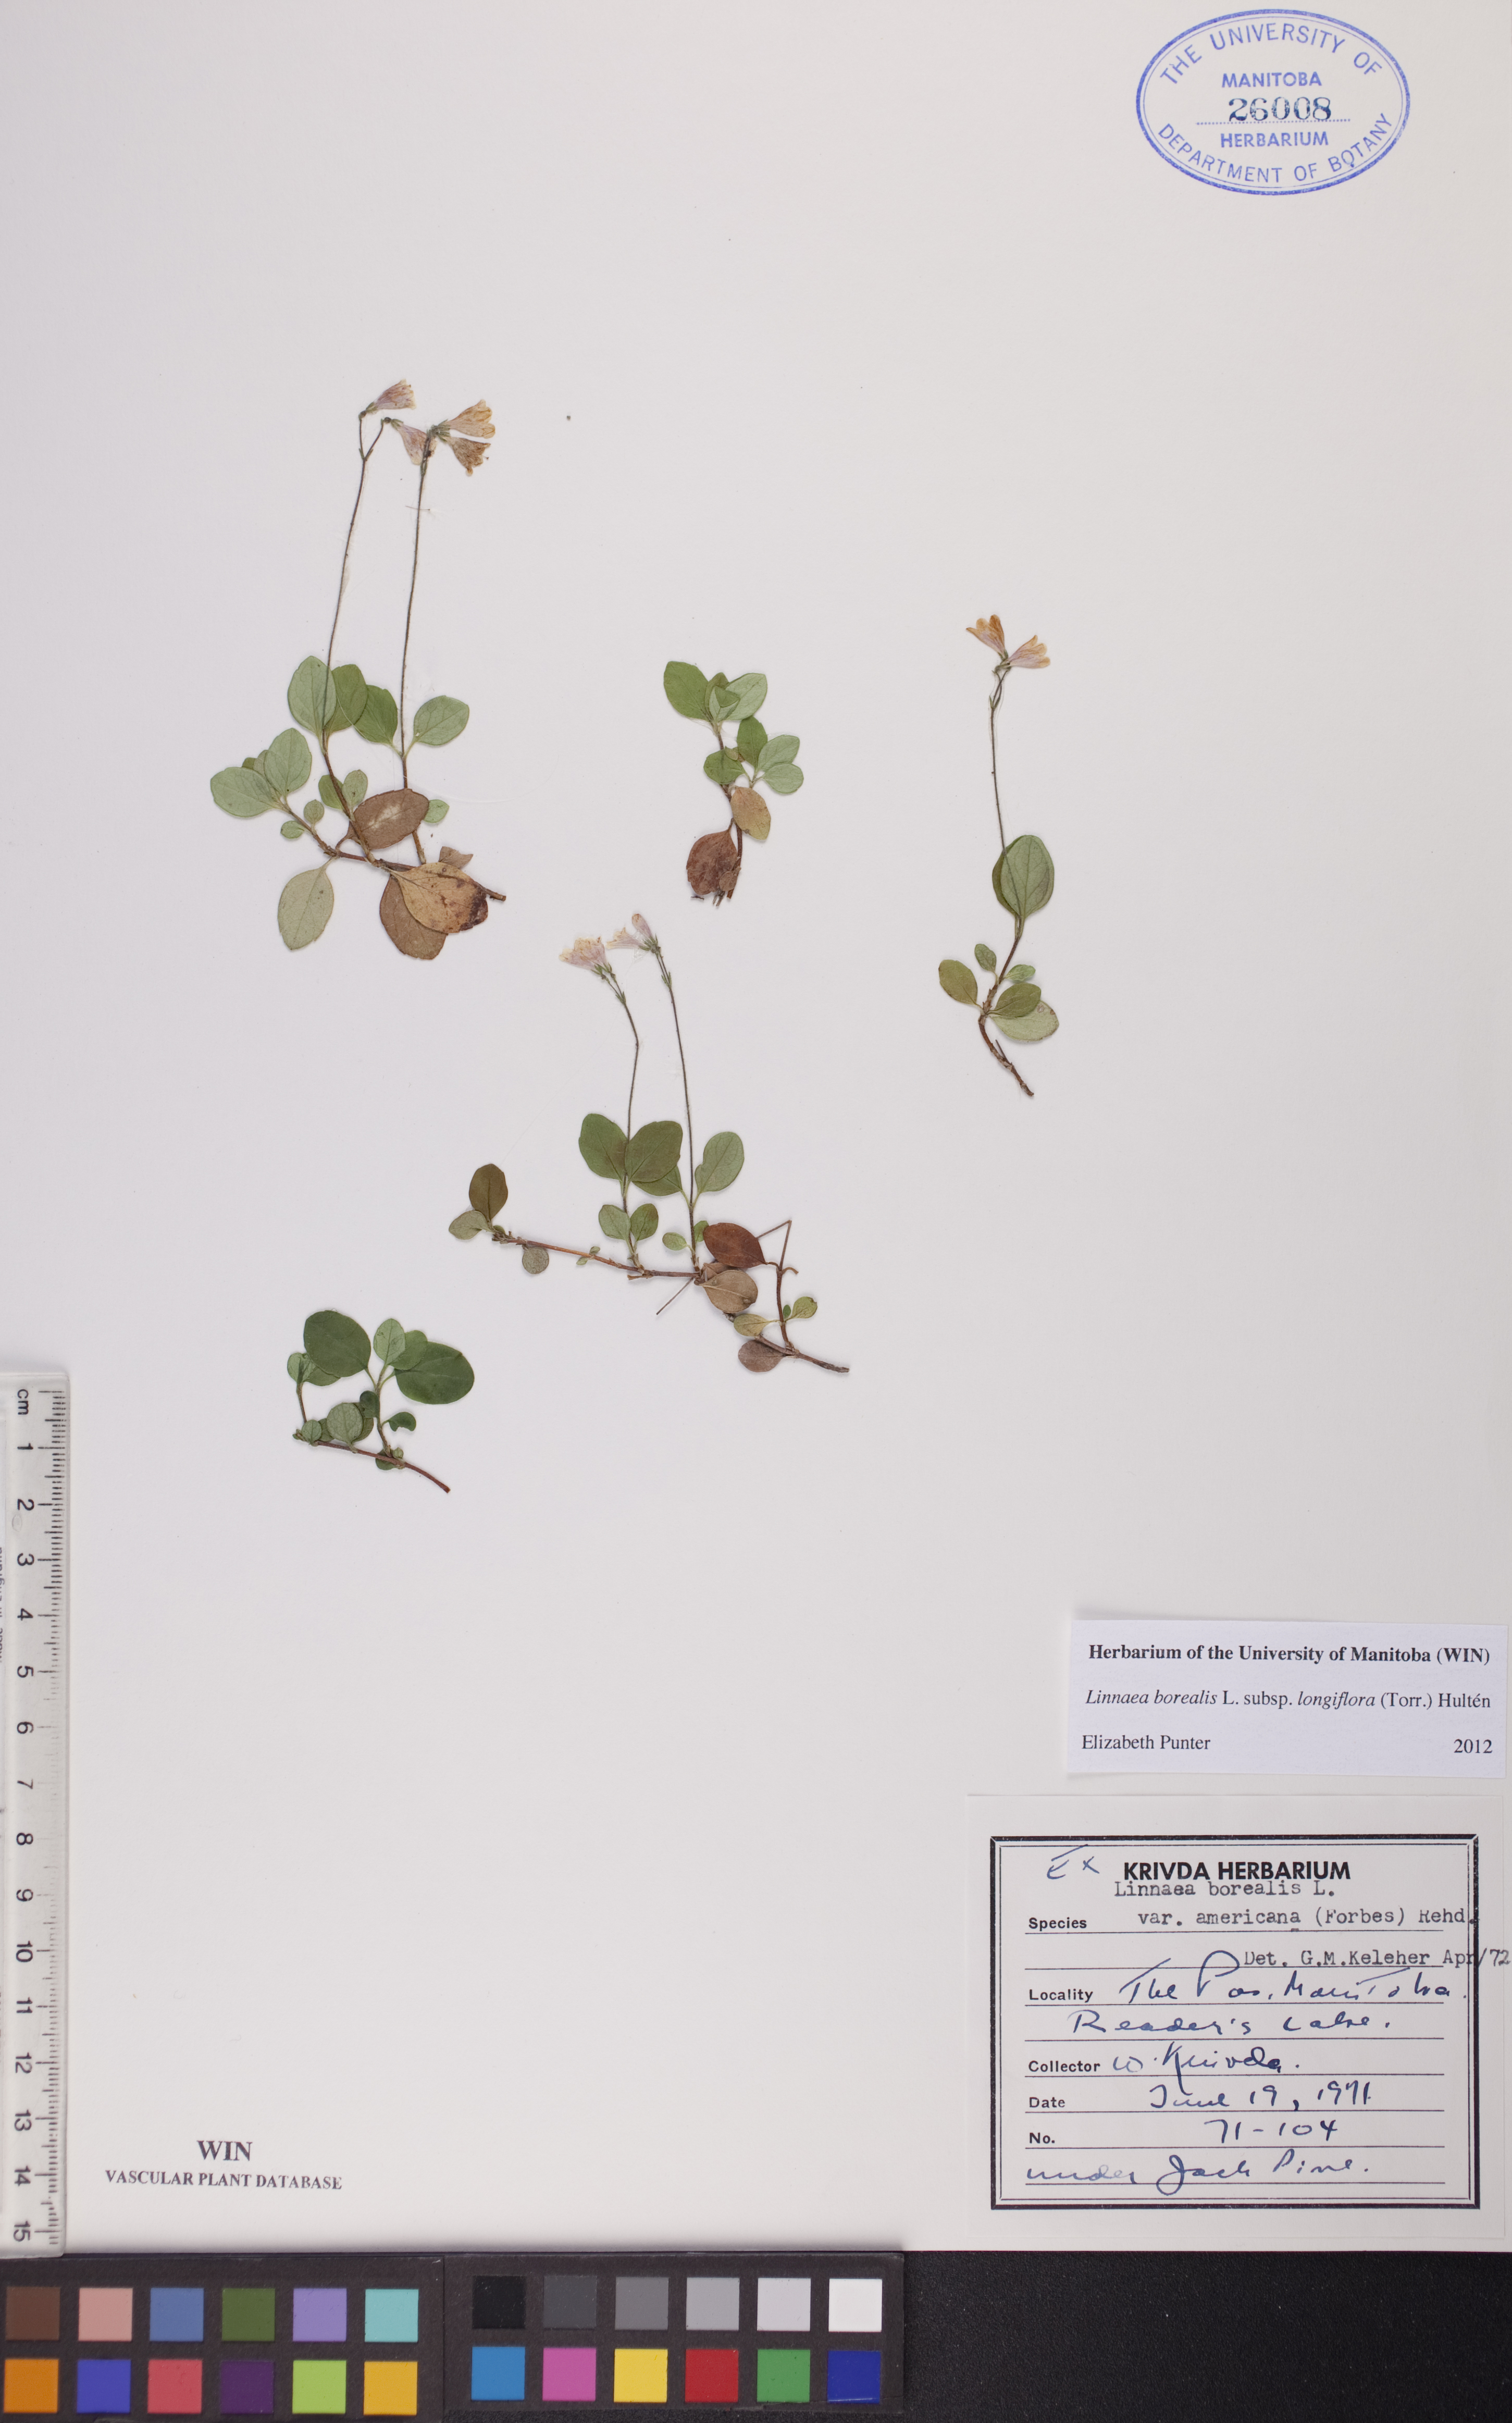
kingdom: Plantae
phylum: Tracheophyta
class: Magnoliopsida
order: Dipsacales
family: Caprifoliaceae
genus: Linnaea
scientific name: Linnaea borealis
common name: Twinflower
